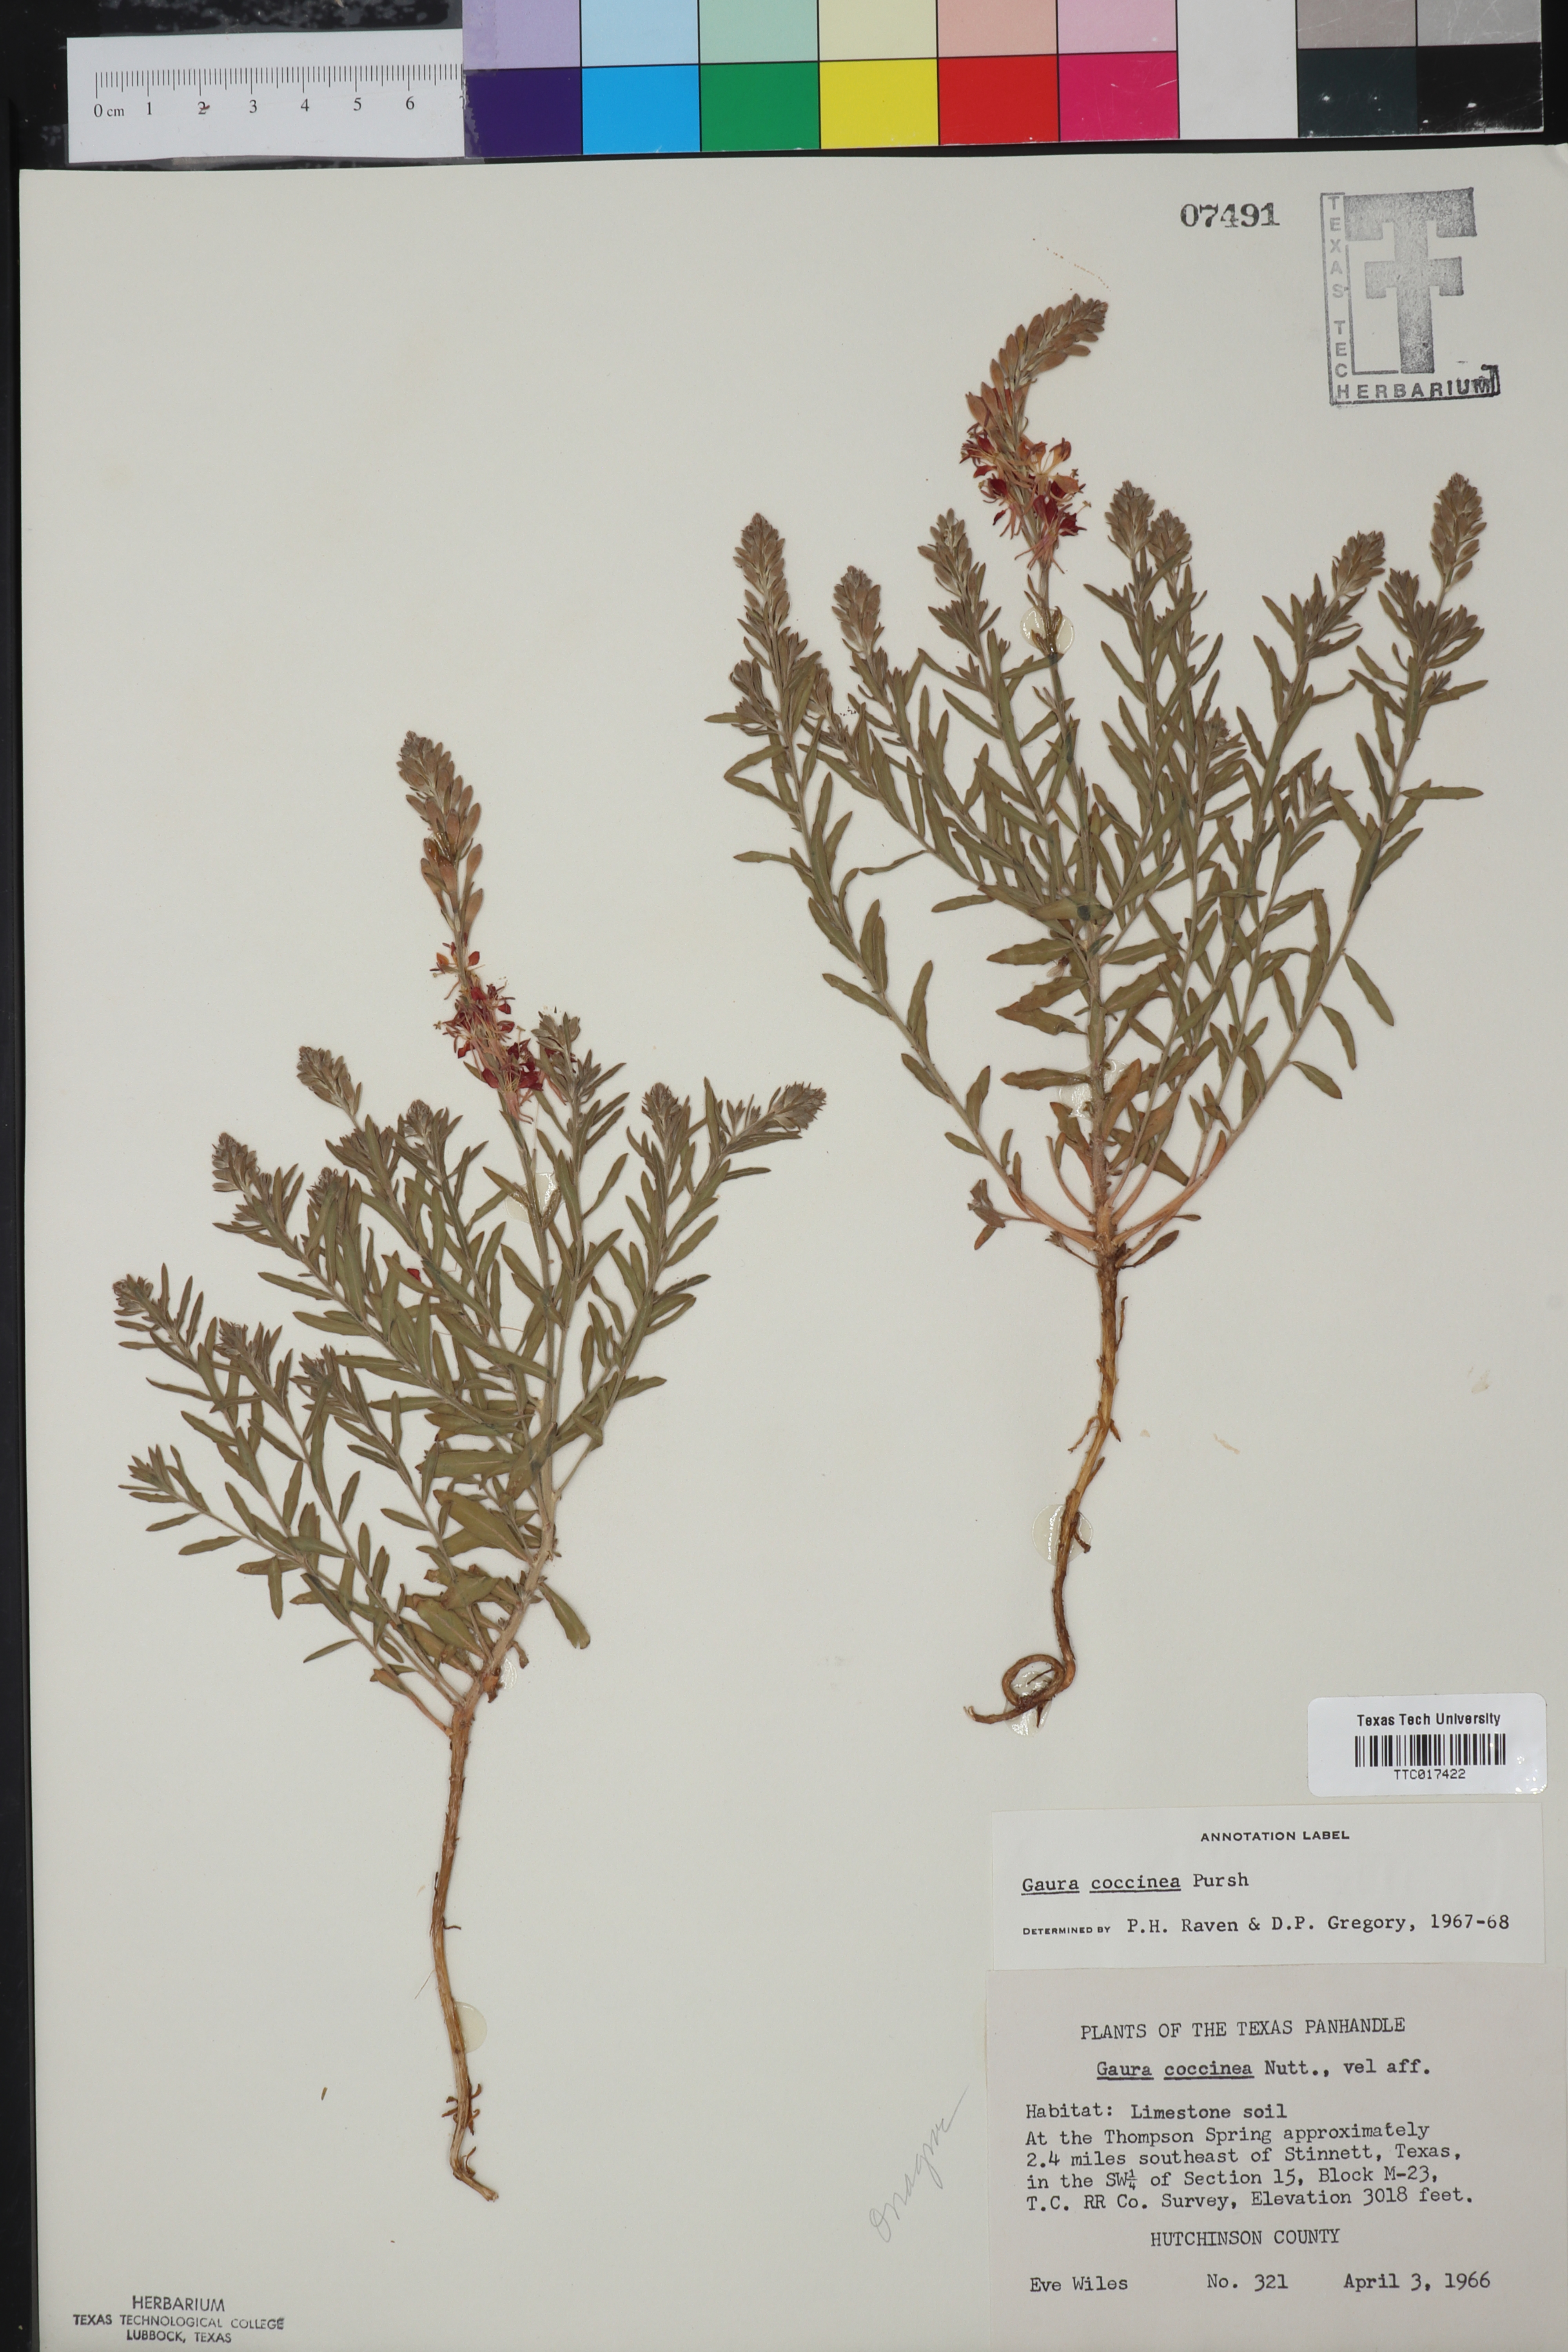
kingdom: Plantae
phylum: Tracheophyta
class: Magnoliopsida
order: Myrtales
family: Onagraceae
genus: Oenothera
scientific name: Oenothera suffrutescens
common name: Scarlet beeblossom
